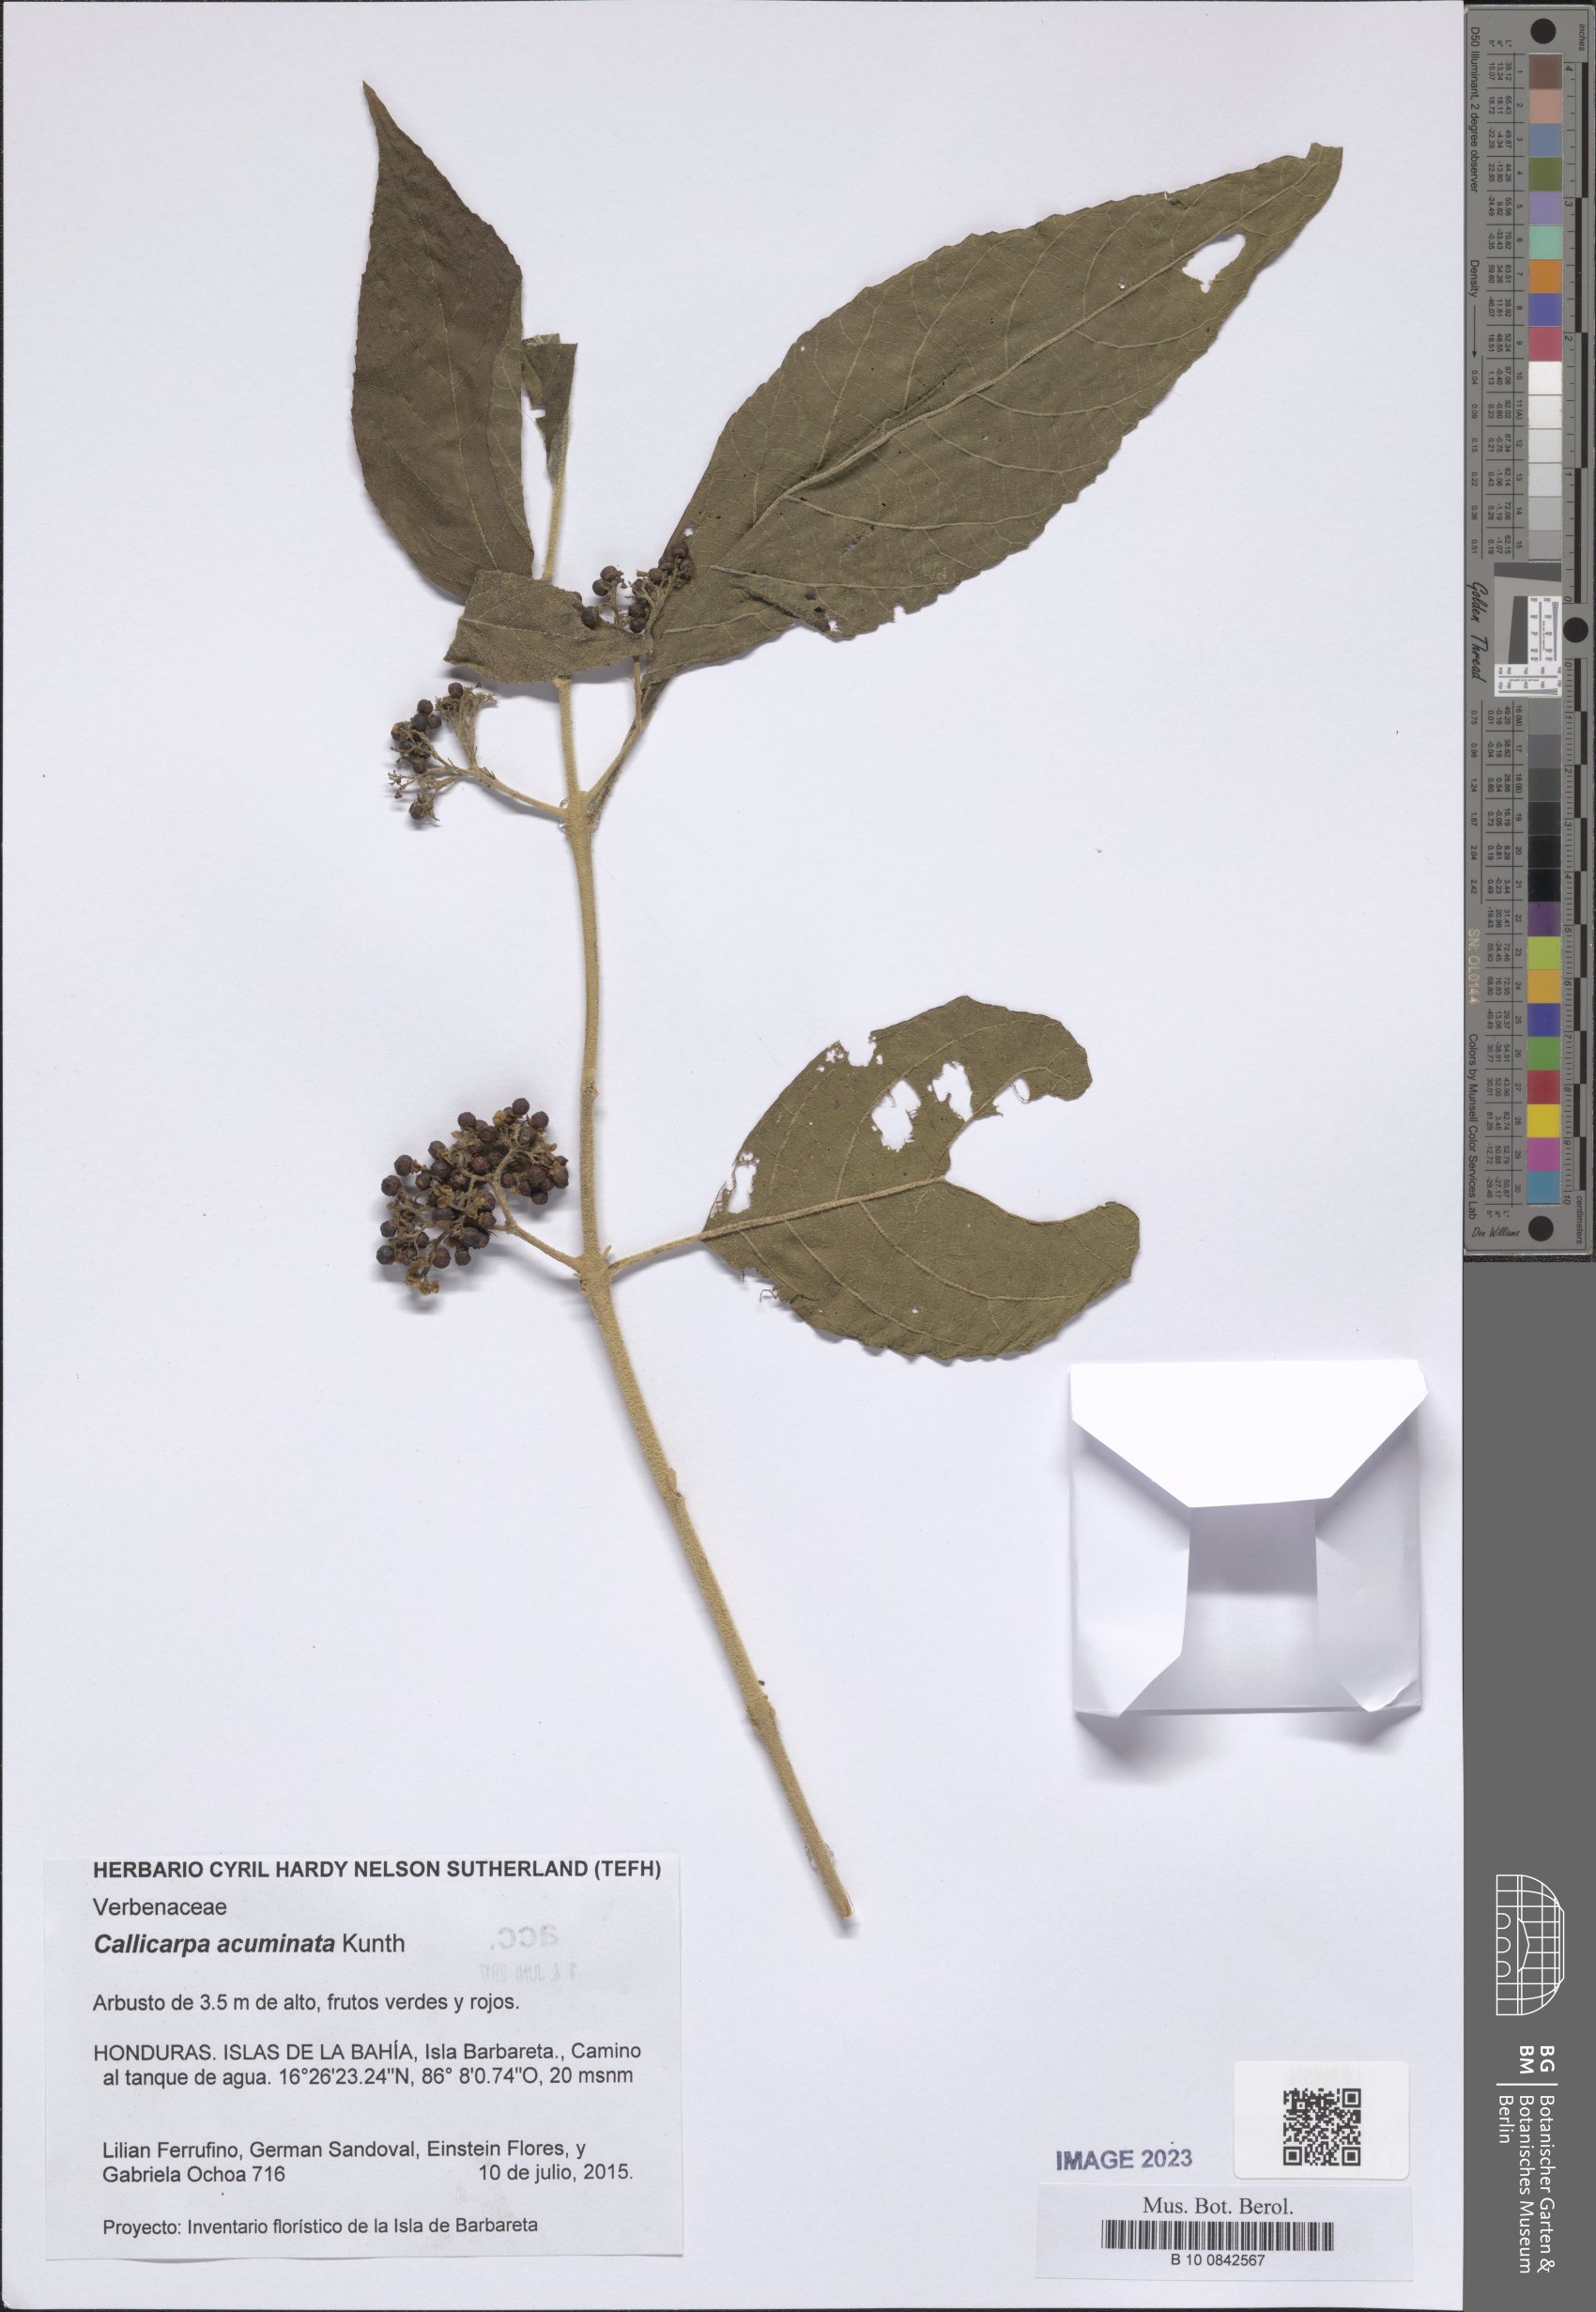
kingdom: Plantae
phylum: Tracheophyta
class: Magnoliopsida
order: Lamiales
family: Lamiaceae
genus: Callicarpa
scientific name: Callicarpa acuminata
